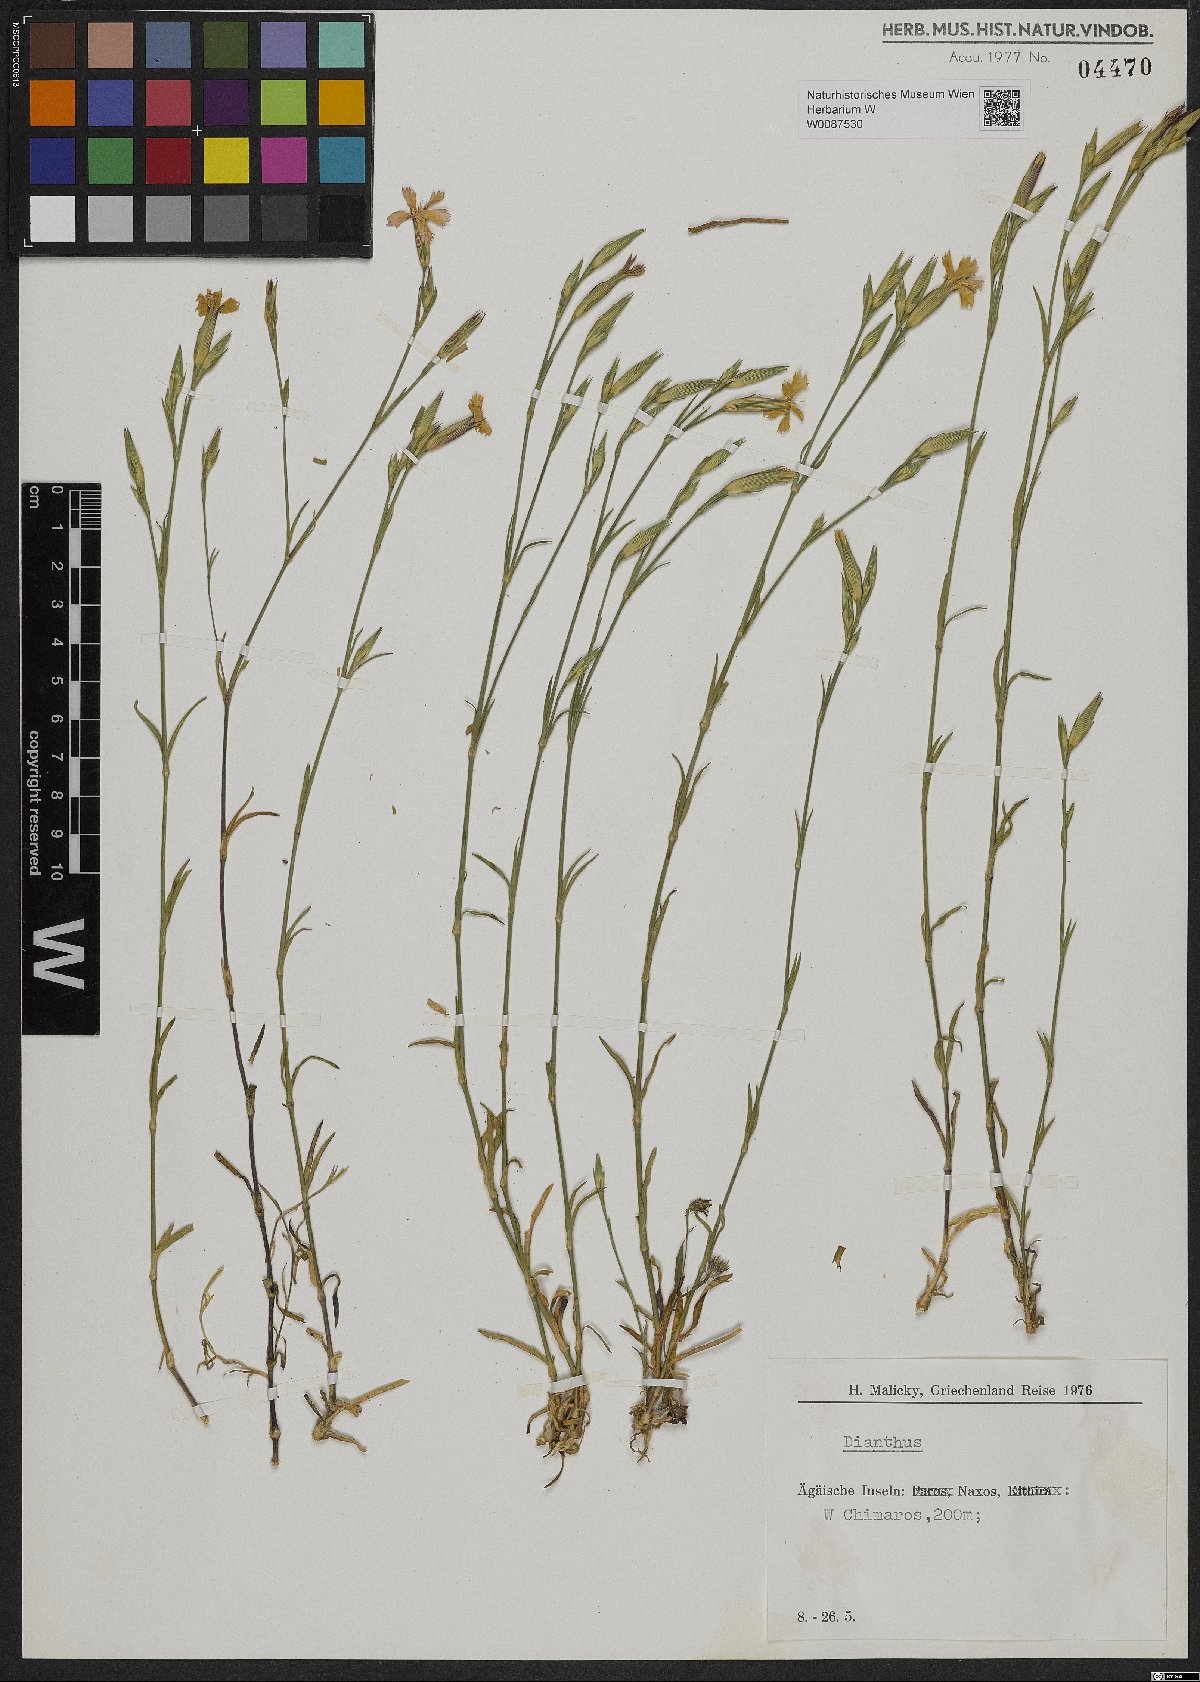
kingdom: Plantae
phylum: Tracheophyta
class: Magnoliopsida
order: Caryophyllales
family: Caryophyllaceae
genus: Dianthus
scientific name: Dianthus
